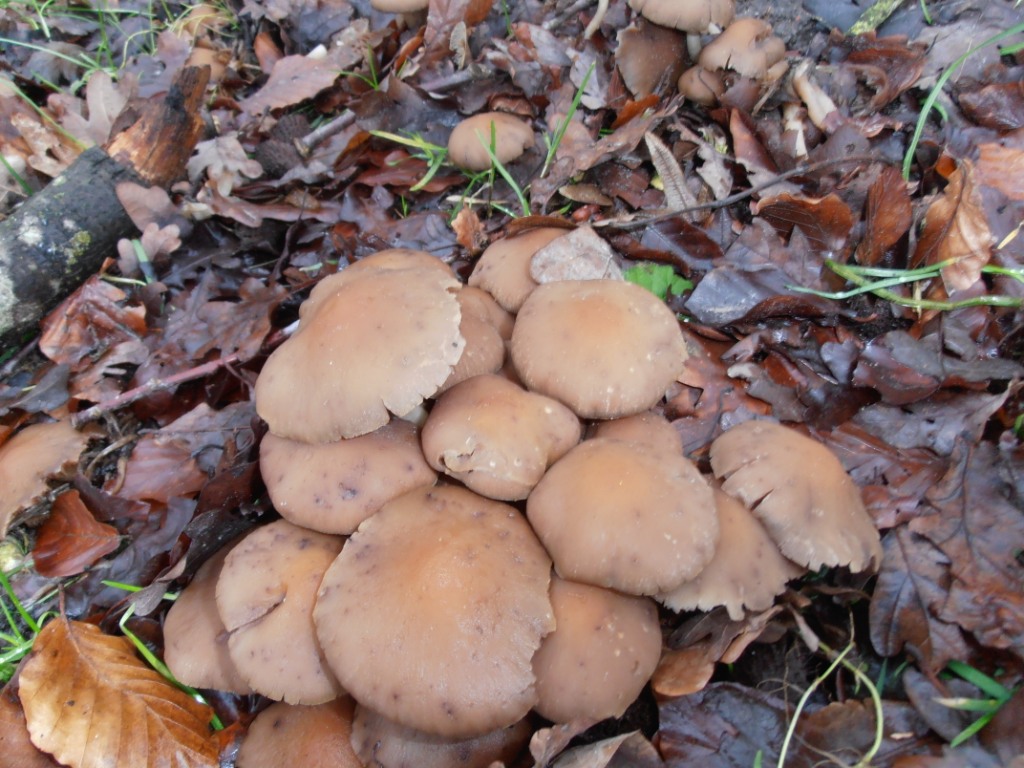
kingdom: Fungi
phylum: Basidiomycota
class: Agaricomycetes
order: Agaricales
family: Psathyrellaceae
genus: Psathyrella
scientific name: Psathyrella piluliformis
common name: lysstokket mørkhat
